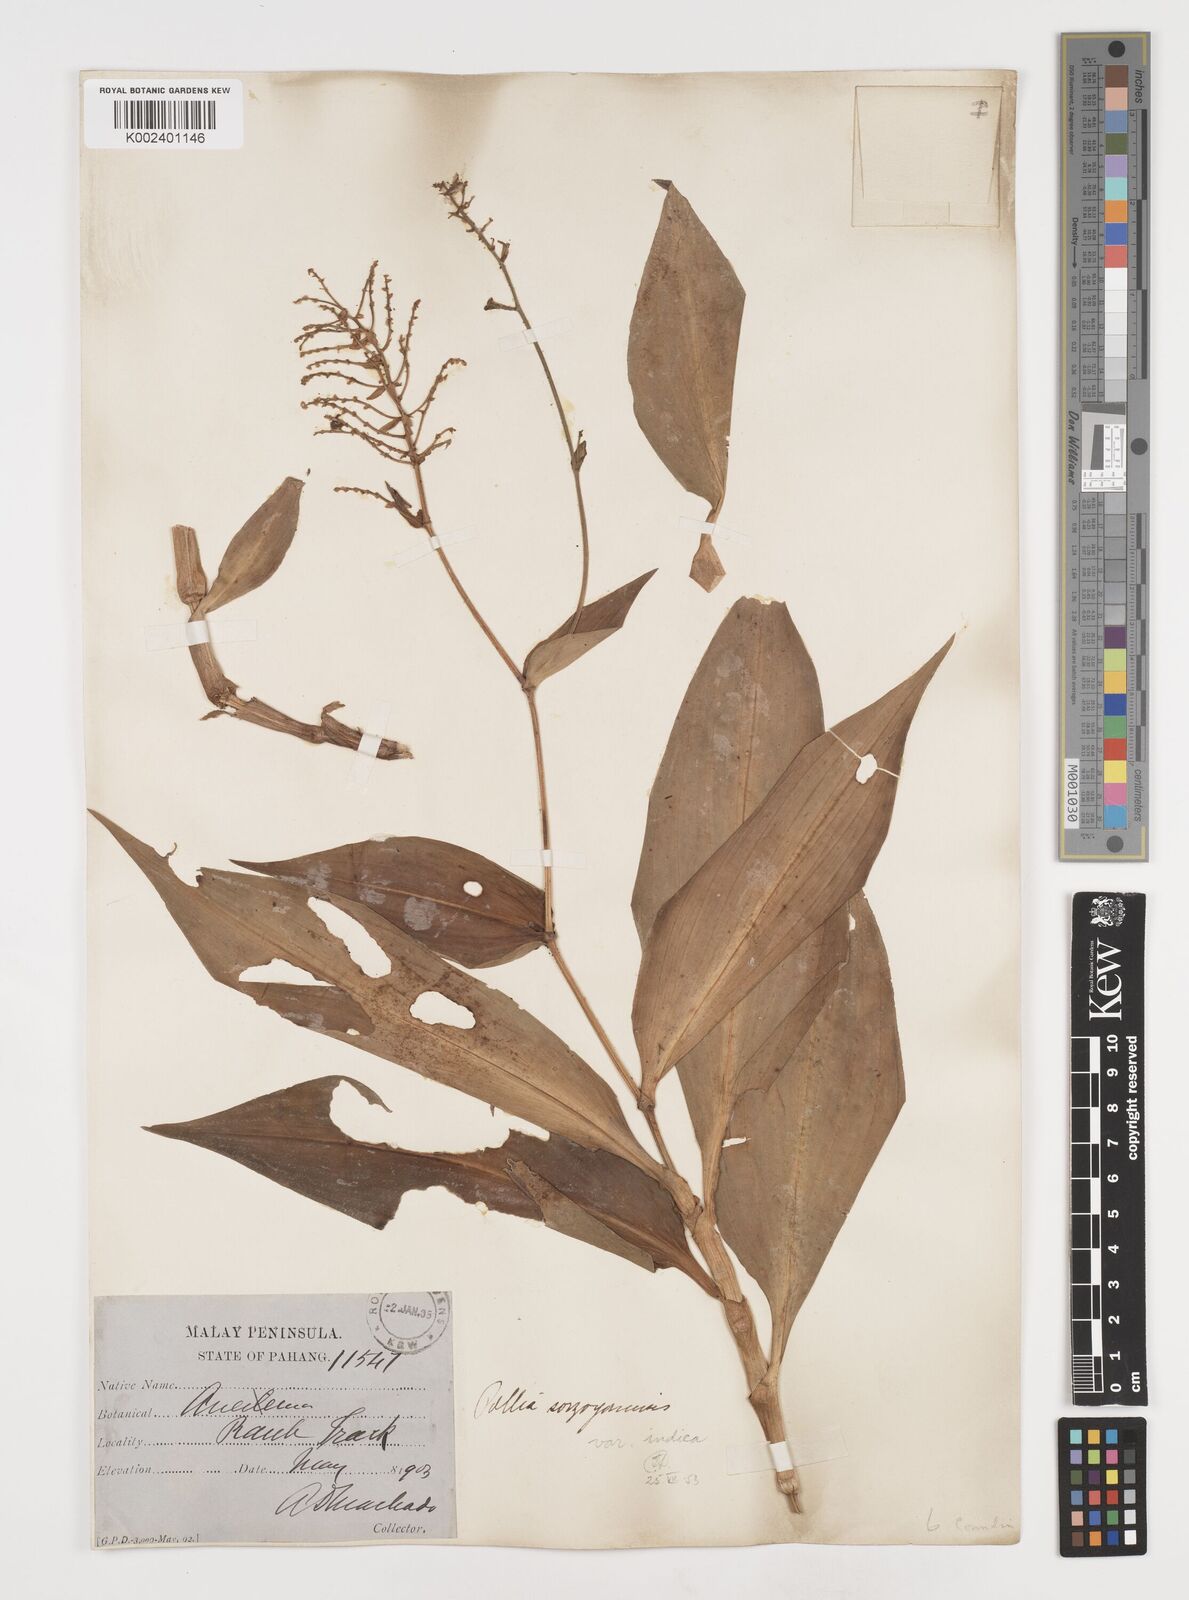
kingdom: Plantae
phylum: Tracheophyta
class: Liliopsida
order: Commelinales
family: Commelinaceae
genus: Pollia
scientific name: Pollia secundiflora
